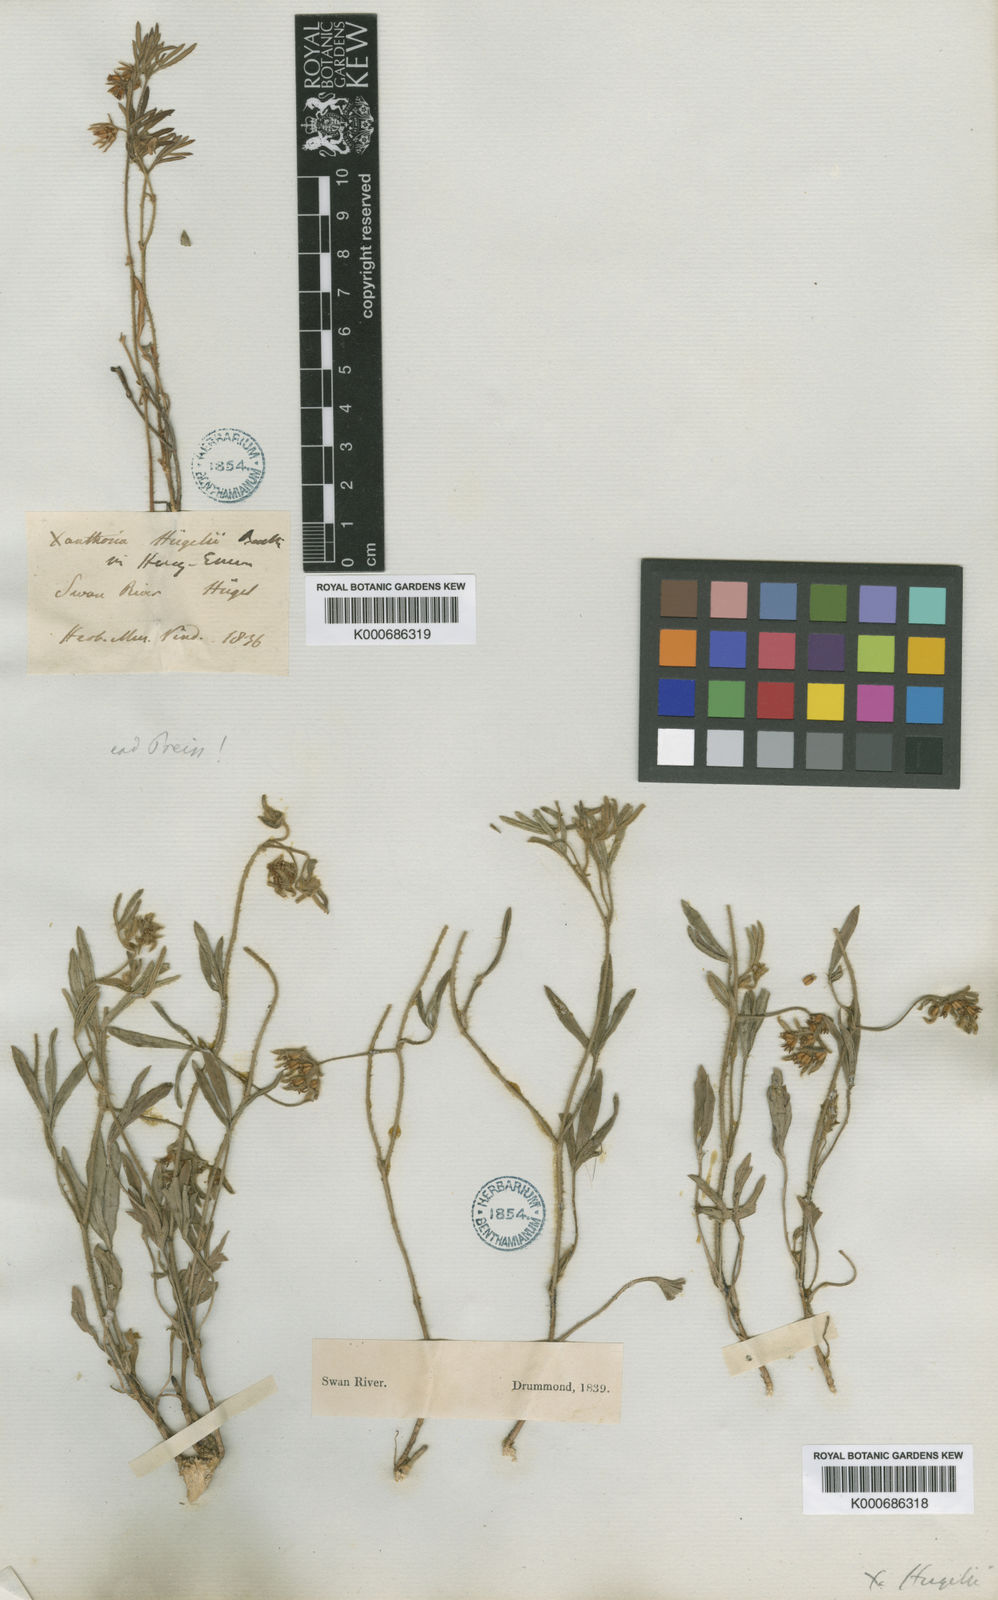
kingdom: Plantae
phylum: Tracheophyta
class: Magnoliopsida
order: Apiales
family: Apiaceae
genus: Xanthosia
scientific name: Xanthosia huegelii
